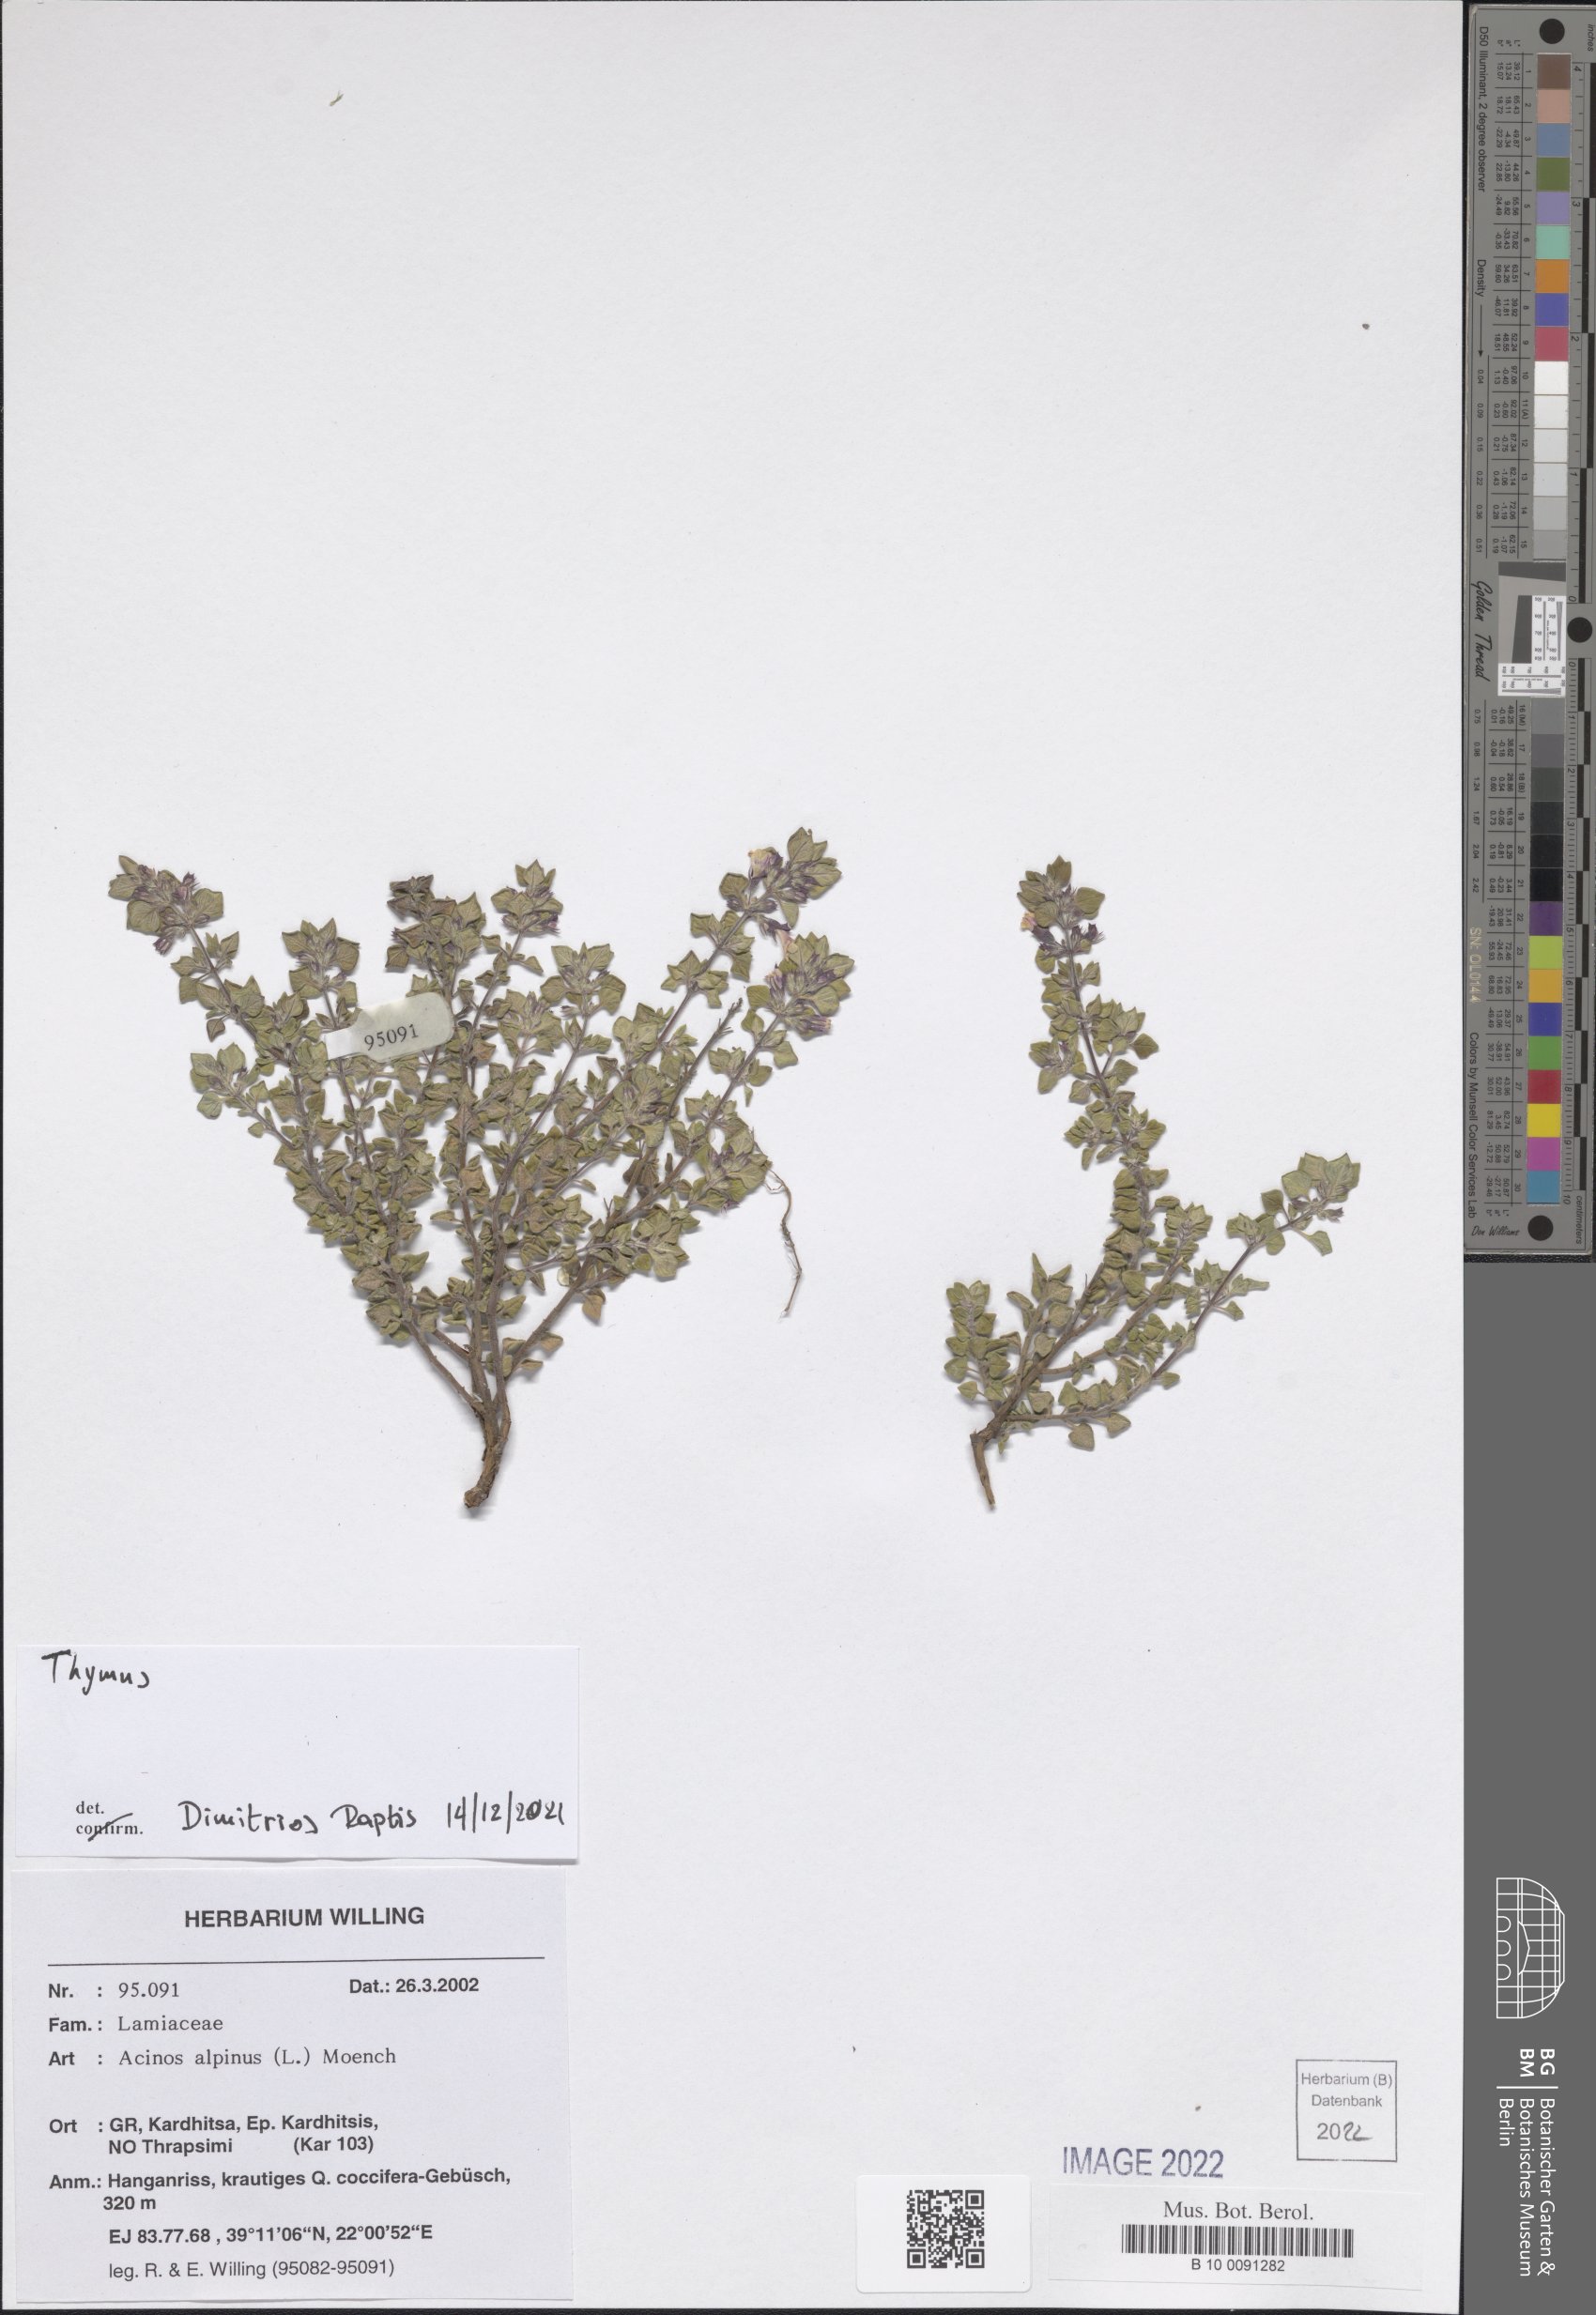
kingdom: Plantae
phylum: Tracheophyta
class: Magnoliopsida
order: Lamiales
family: Lamiaceae
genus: Thymus
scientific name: Thymus
